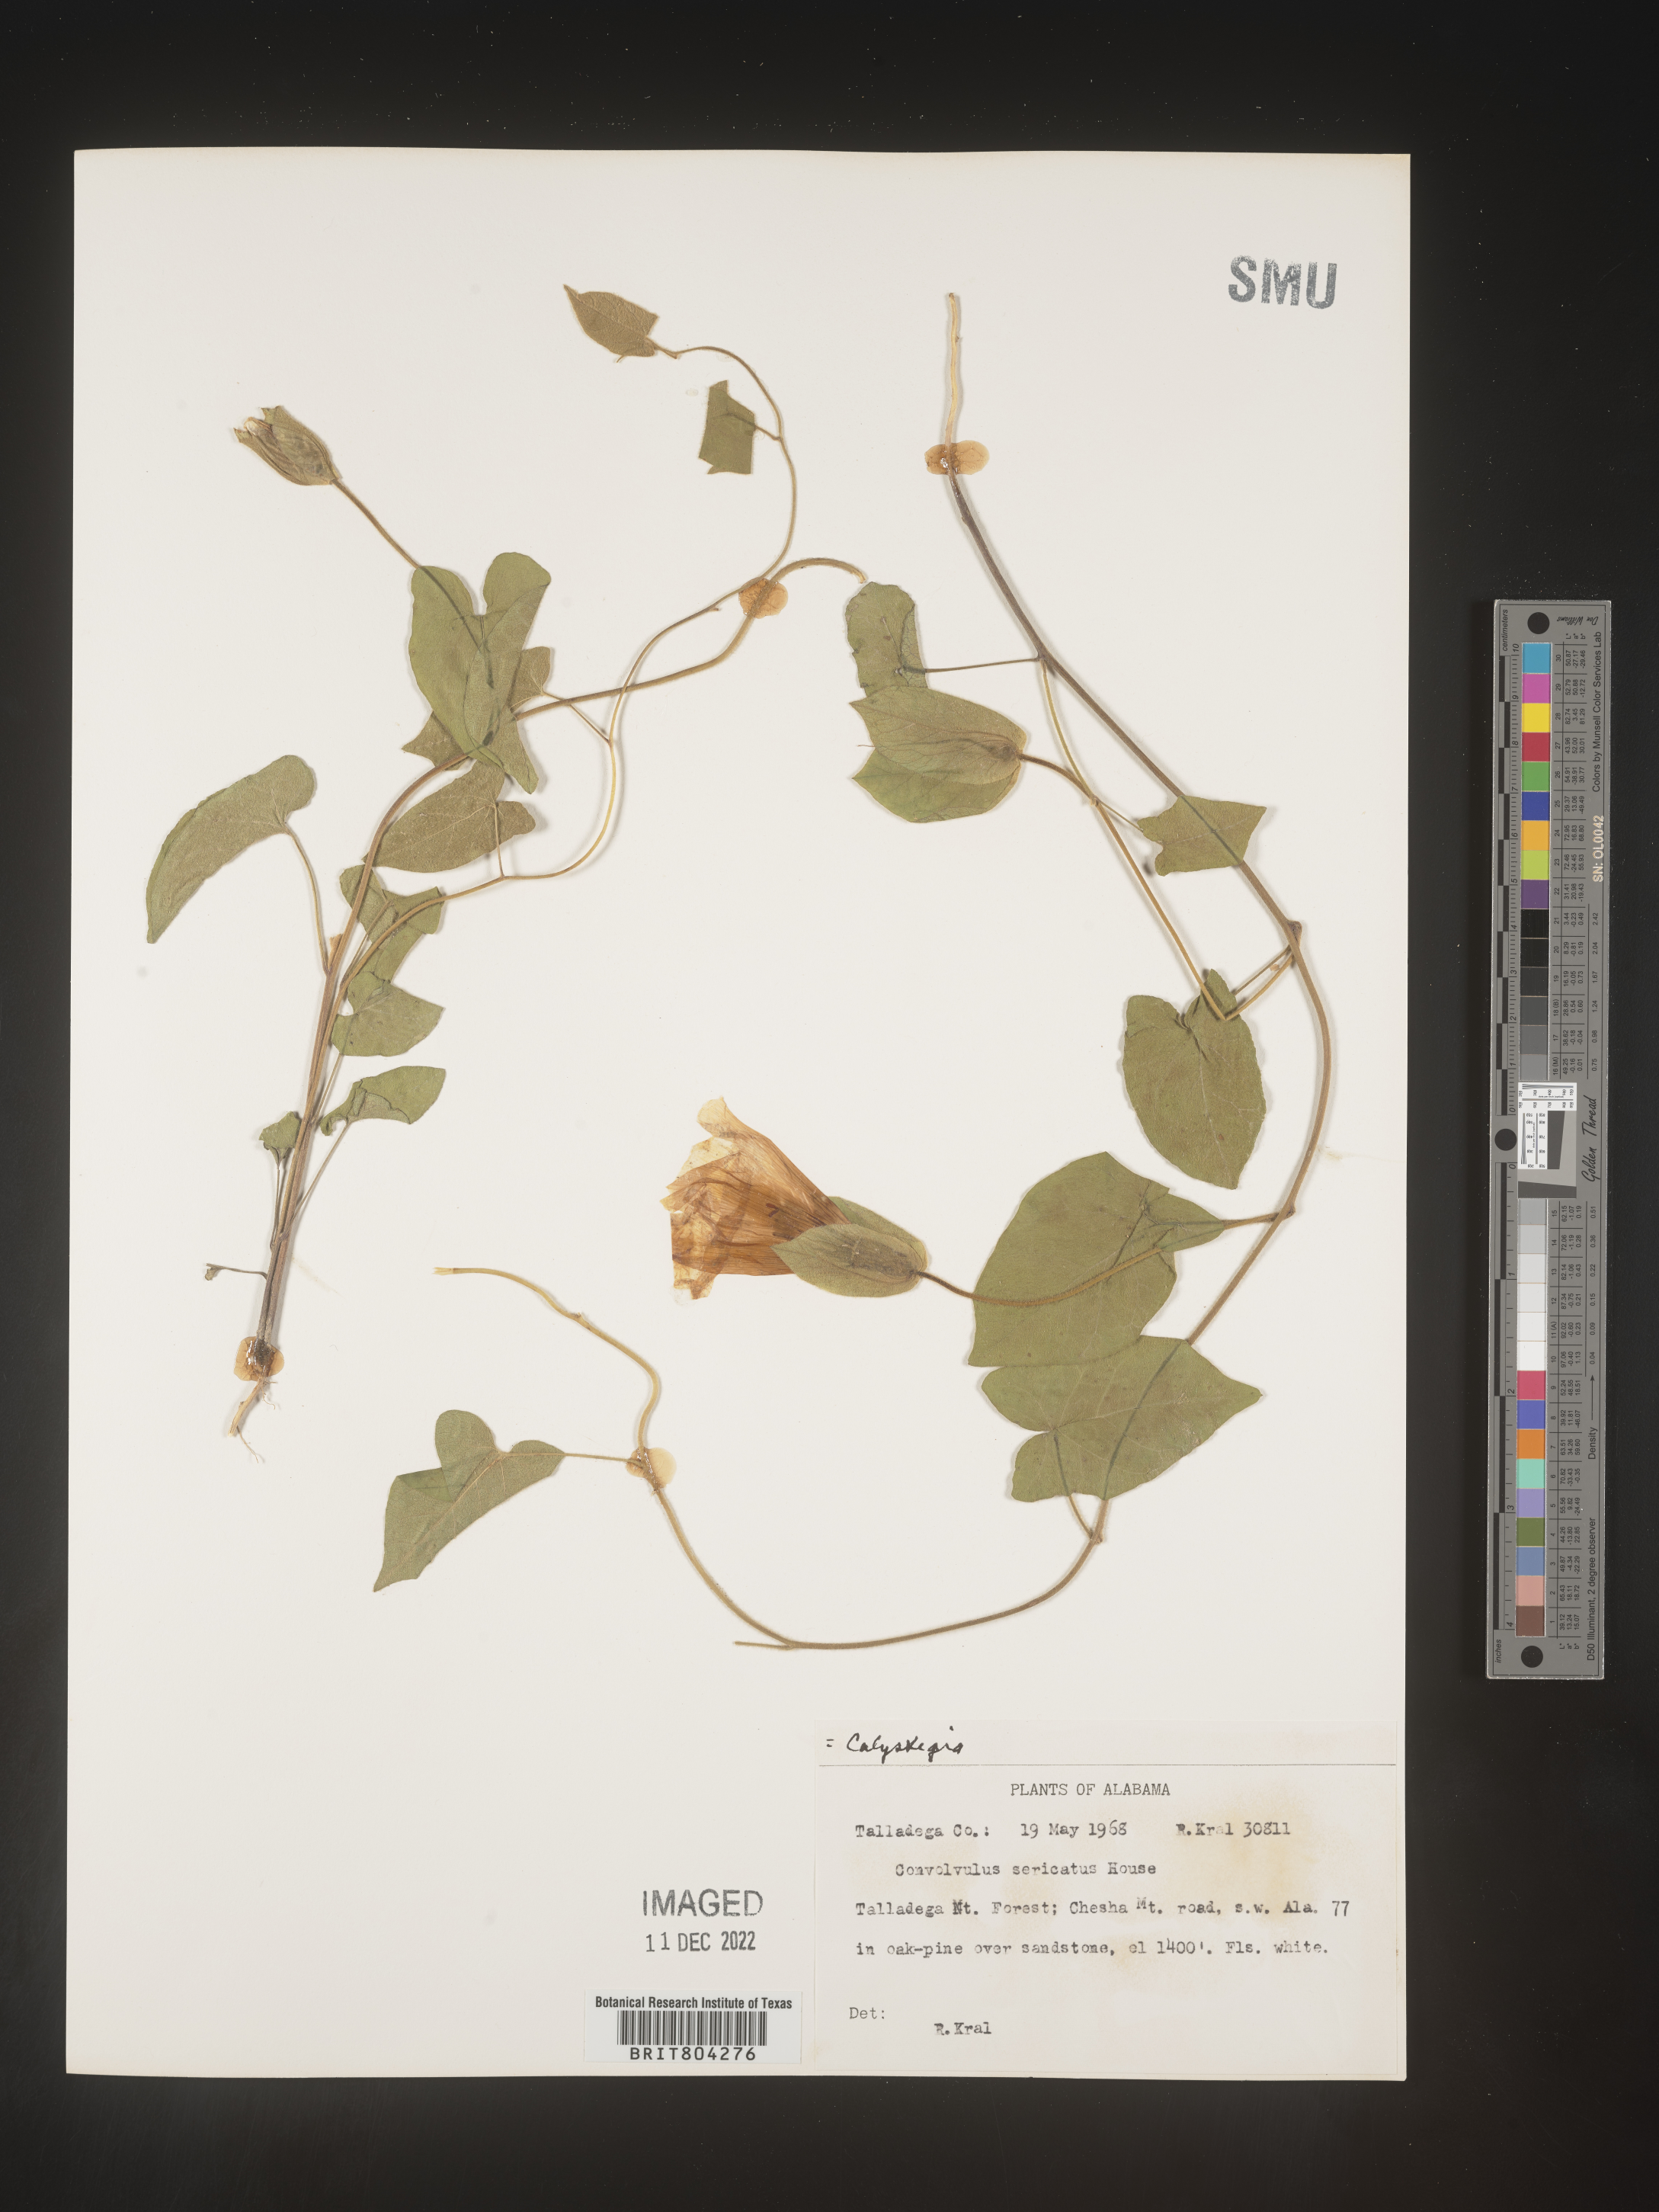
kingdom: Plantae
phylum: Tracheophyta
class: Magnoliopsida
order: Solanales
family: Convolvulaceae
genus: Calystegia
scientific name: Calystegia
